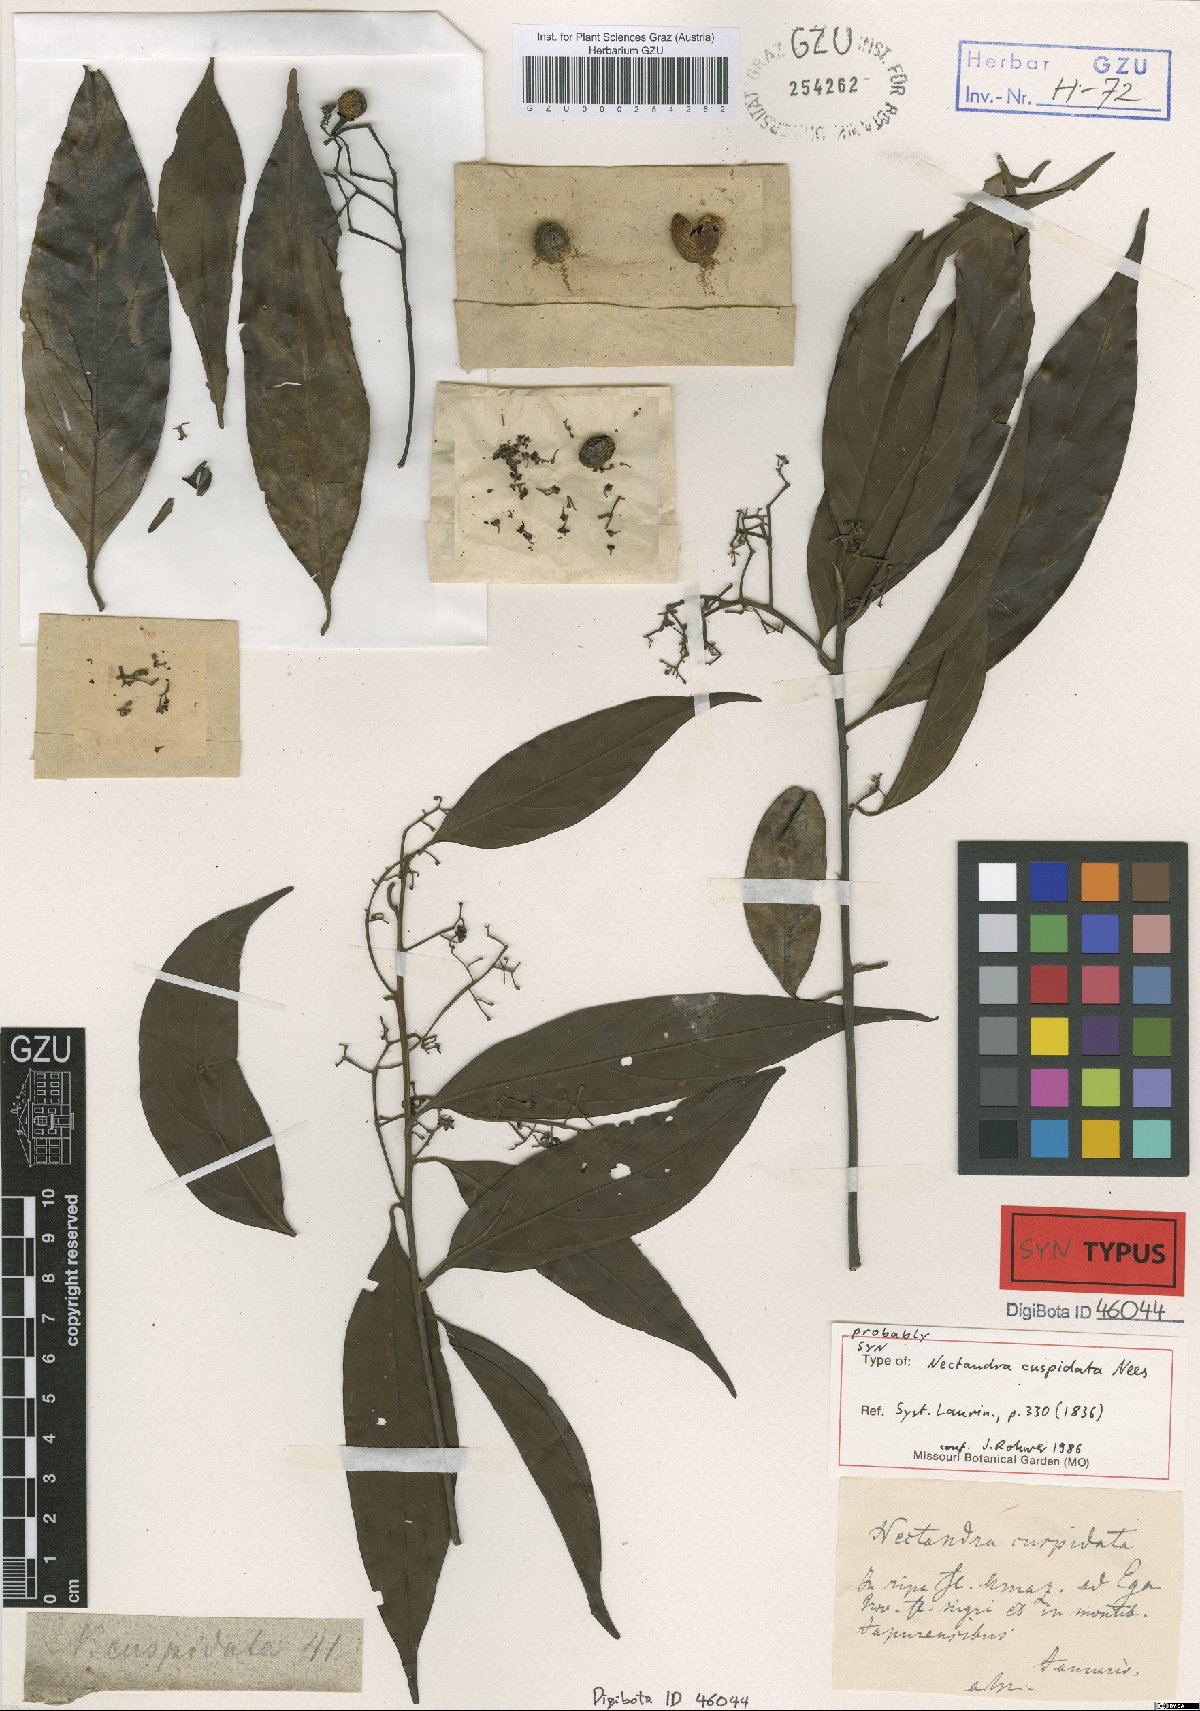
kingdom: Plantae
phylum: Tracheophyta
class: Magnoliopsida
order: Laurales
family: Lauraceae
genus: Nectandra
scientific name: Nectandra cuspidata
